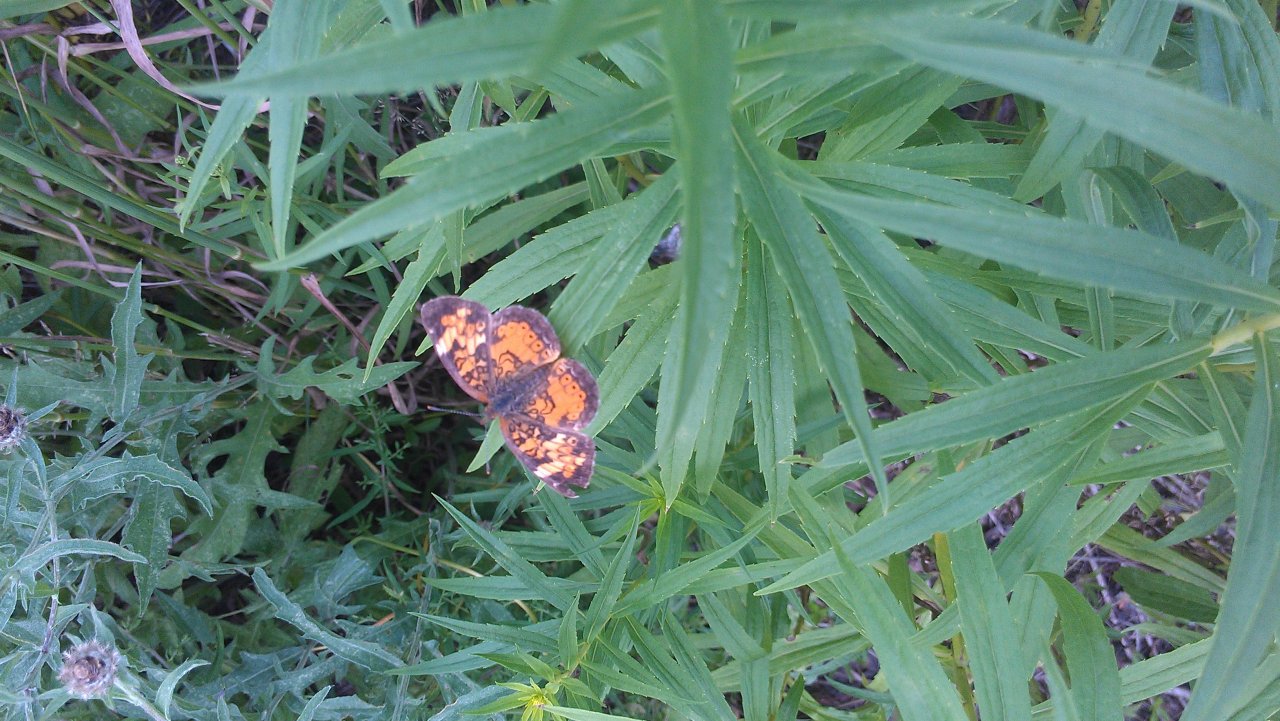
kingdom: Animalia
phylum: Arthropoda
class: Insecta
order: Lepidoptera
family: Nymphalidae
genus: Phyciodes
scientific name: Phyciodes tharos
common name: Northern Crescent
